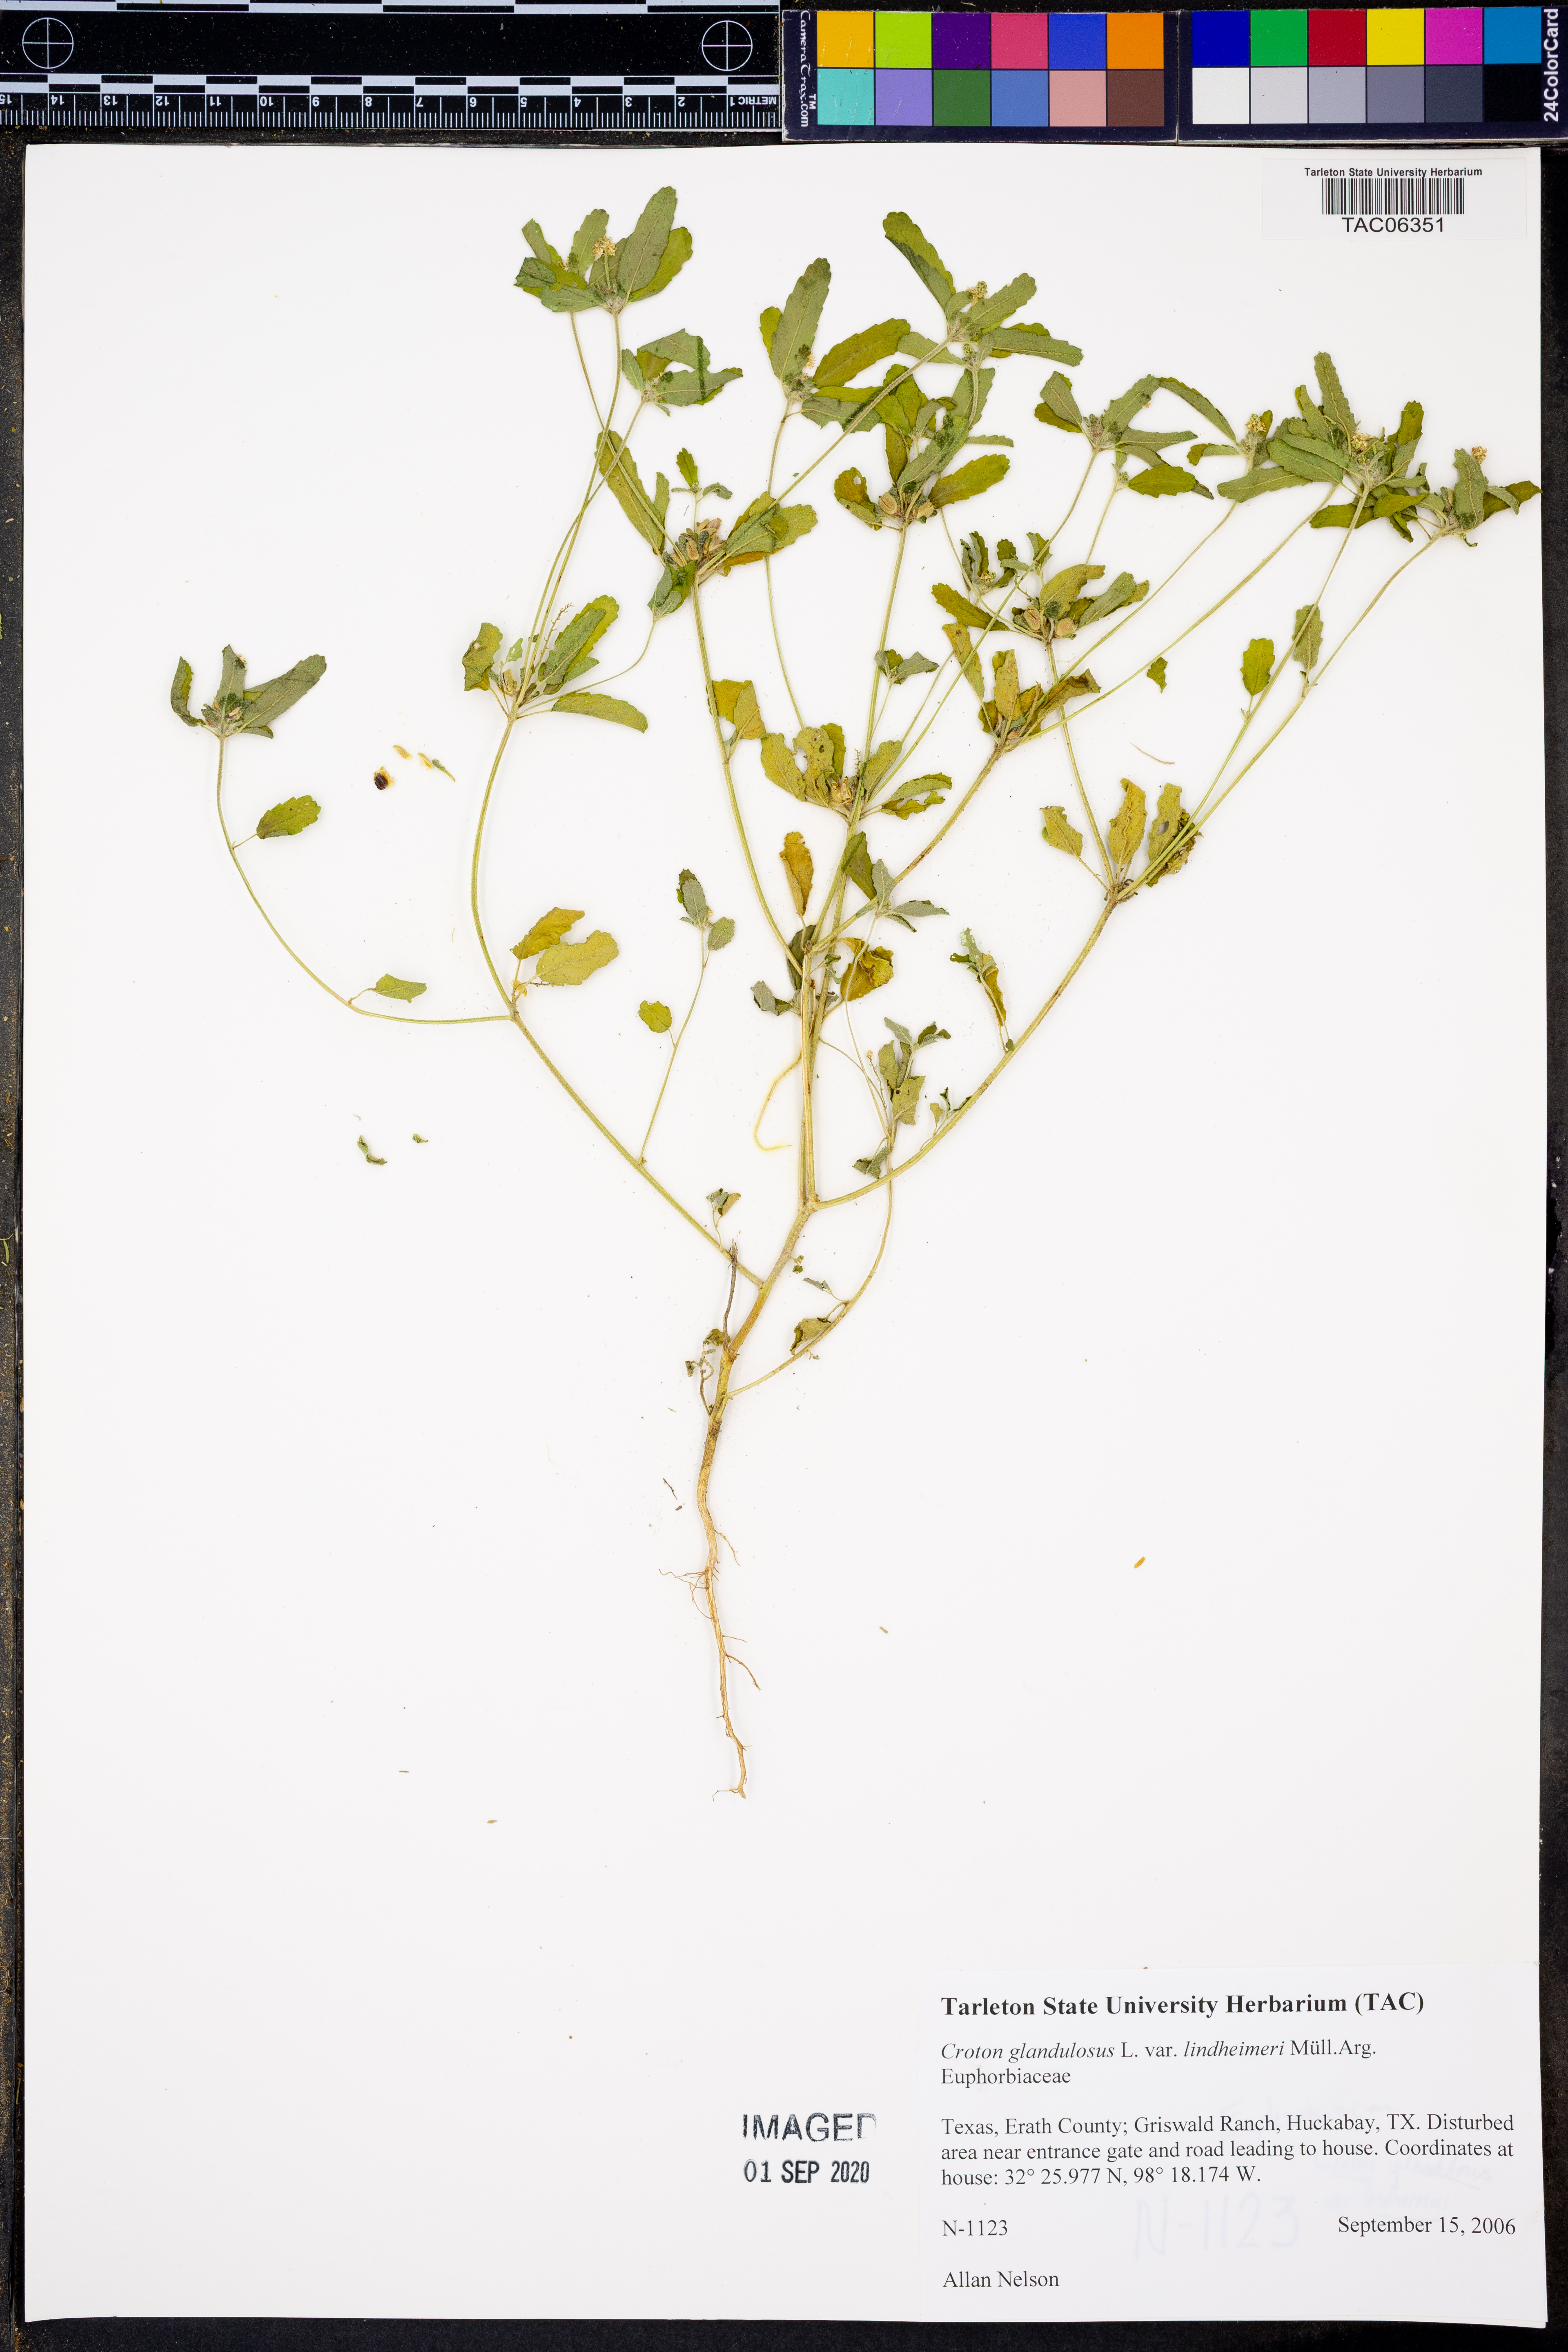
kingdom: Plantae
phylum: Tracheophyta
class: Magnoliopsida
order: Malpighiales
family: Euphorbiaceae
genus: Croton
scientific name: Croton glandulosus
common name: Tropic croton
